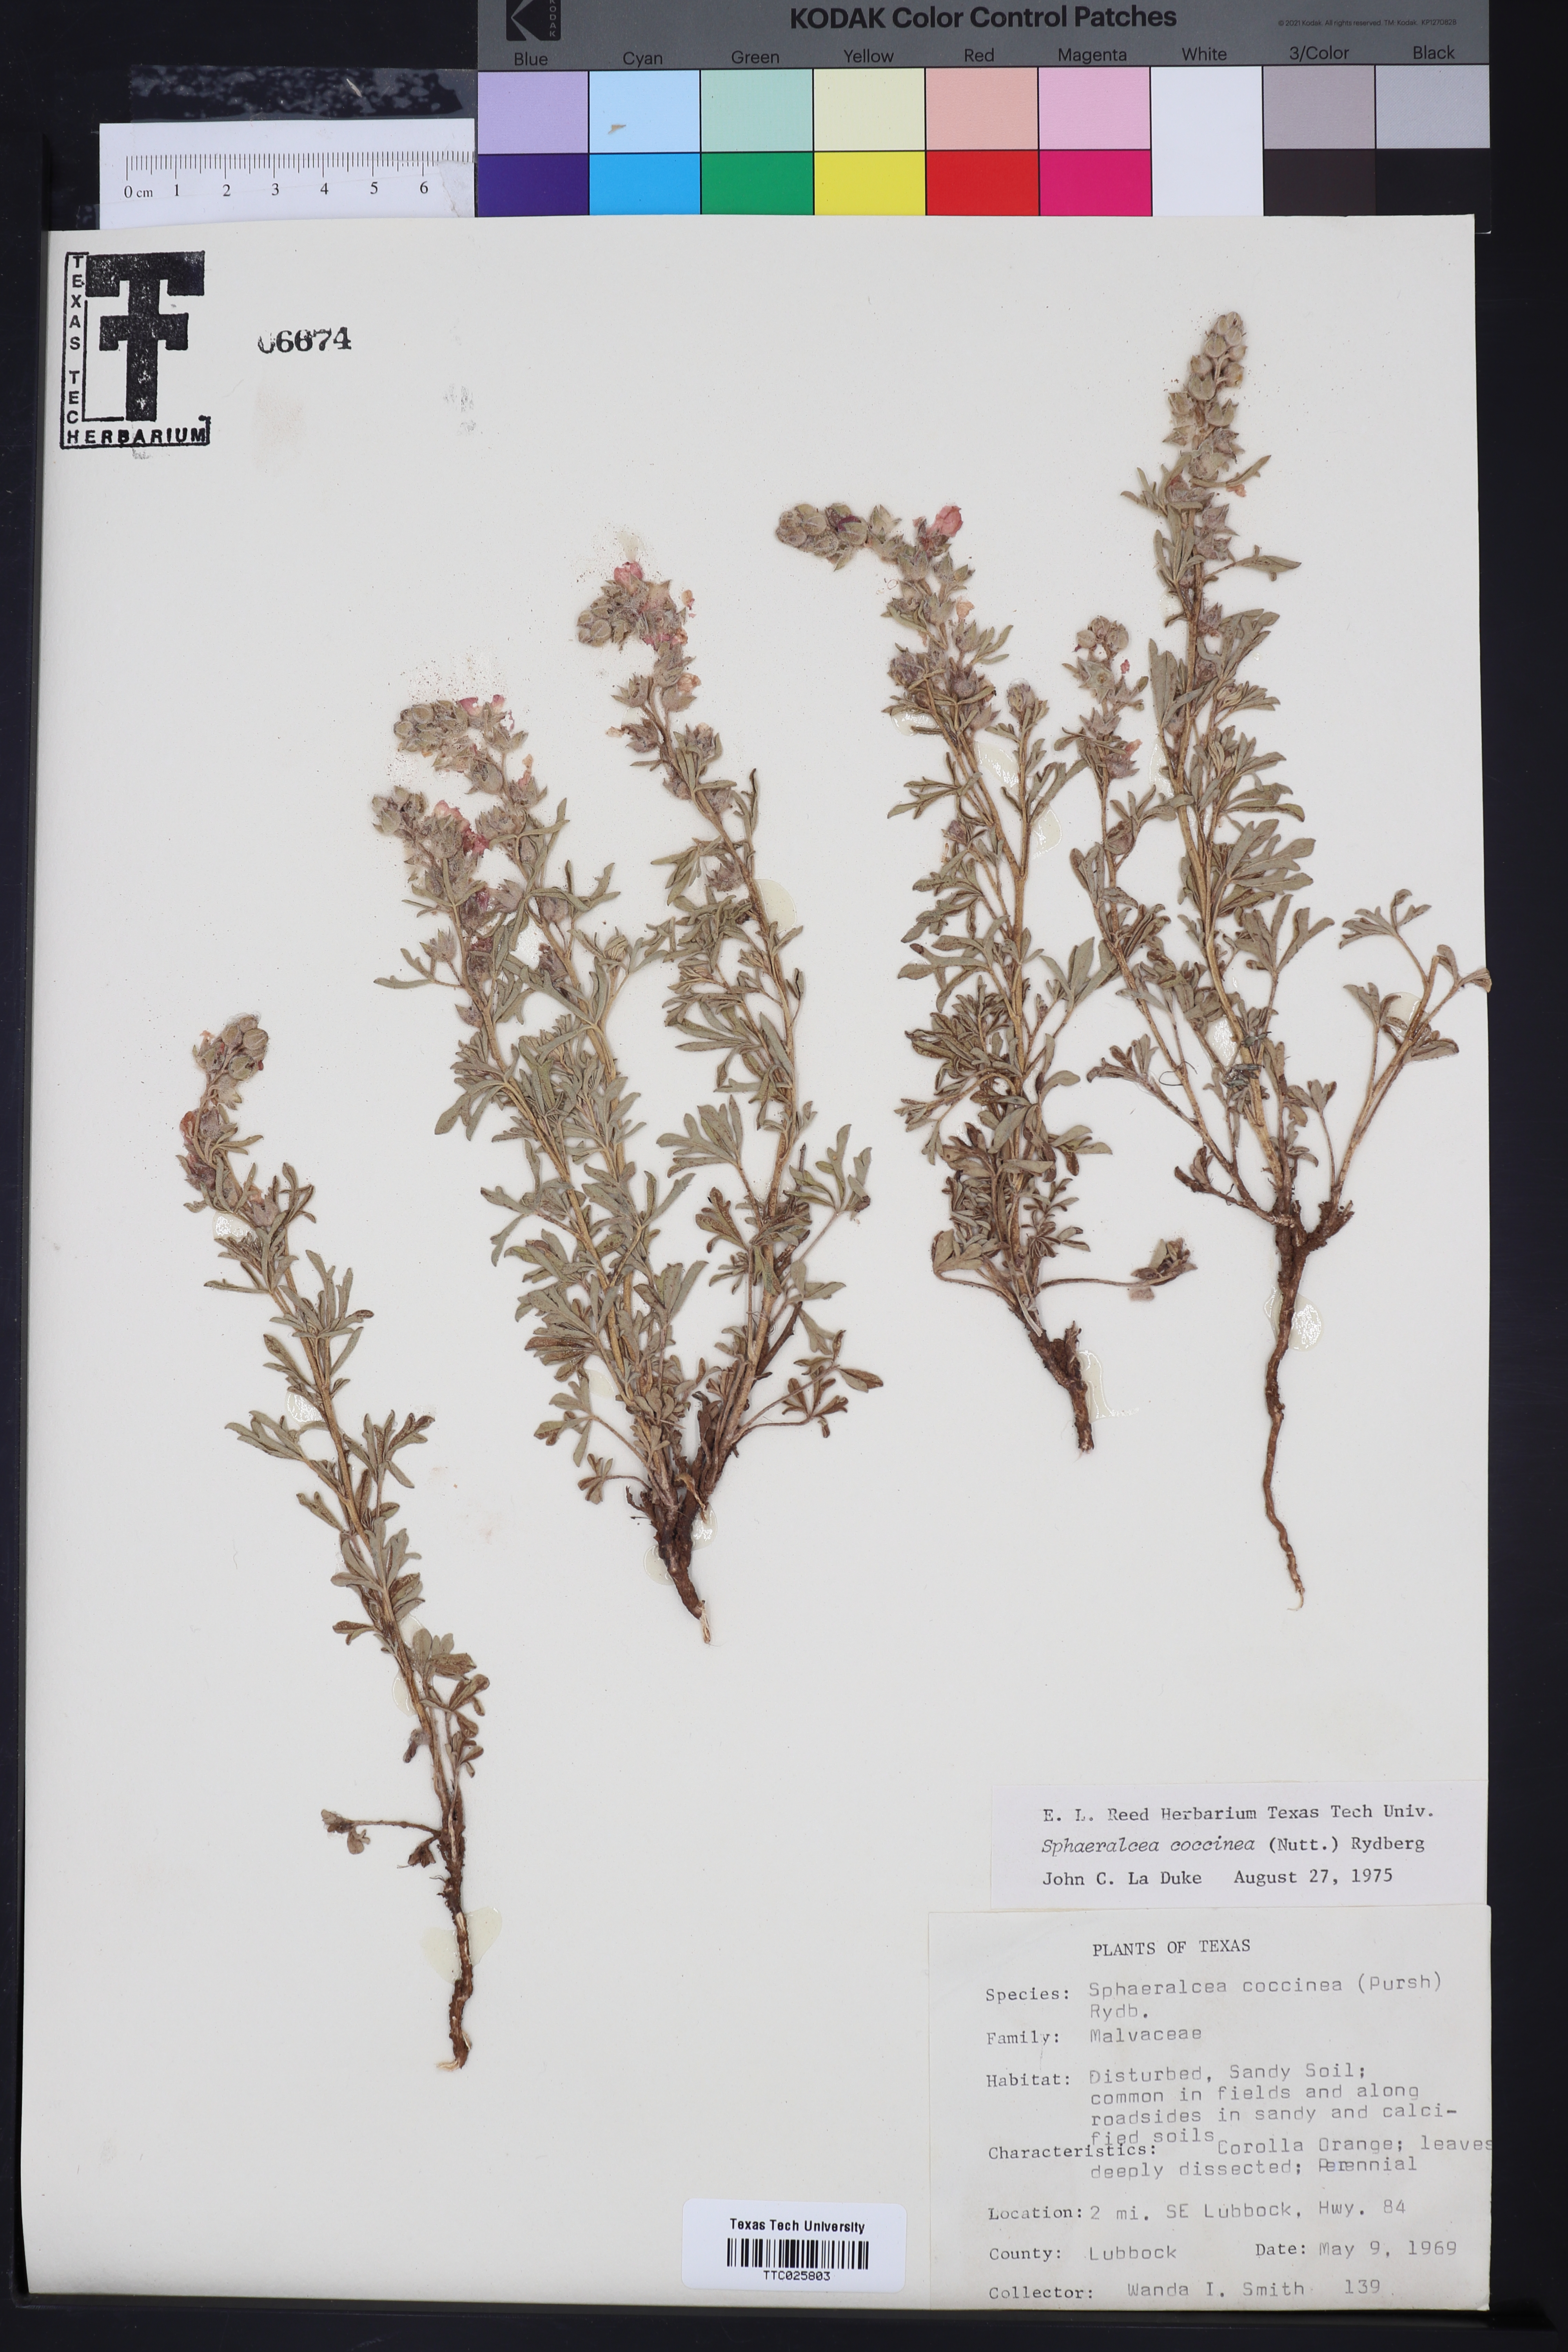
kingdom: Plantae
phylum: Tracheophyta
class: Magnoliopsida
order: Malvales
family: Malvaceae
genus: Sphaeralcea
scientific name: Sphaeralcea coccinea
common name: Moss-rose
